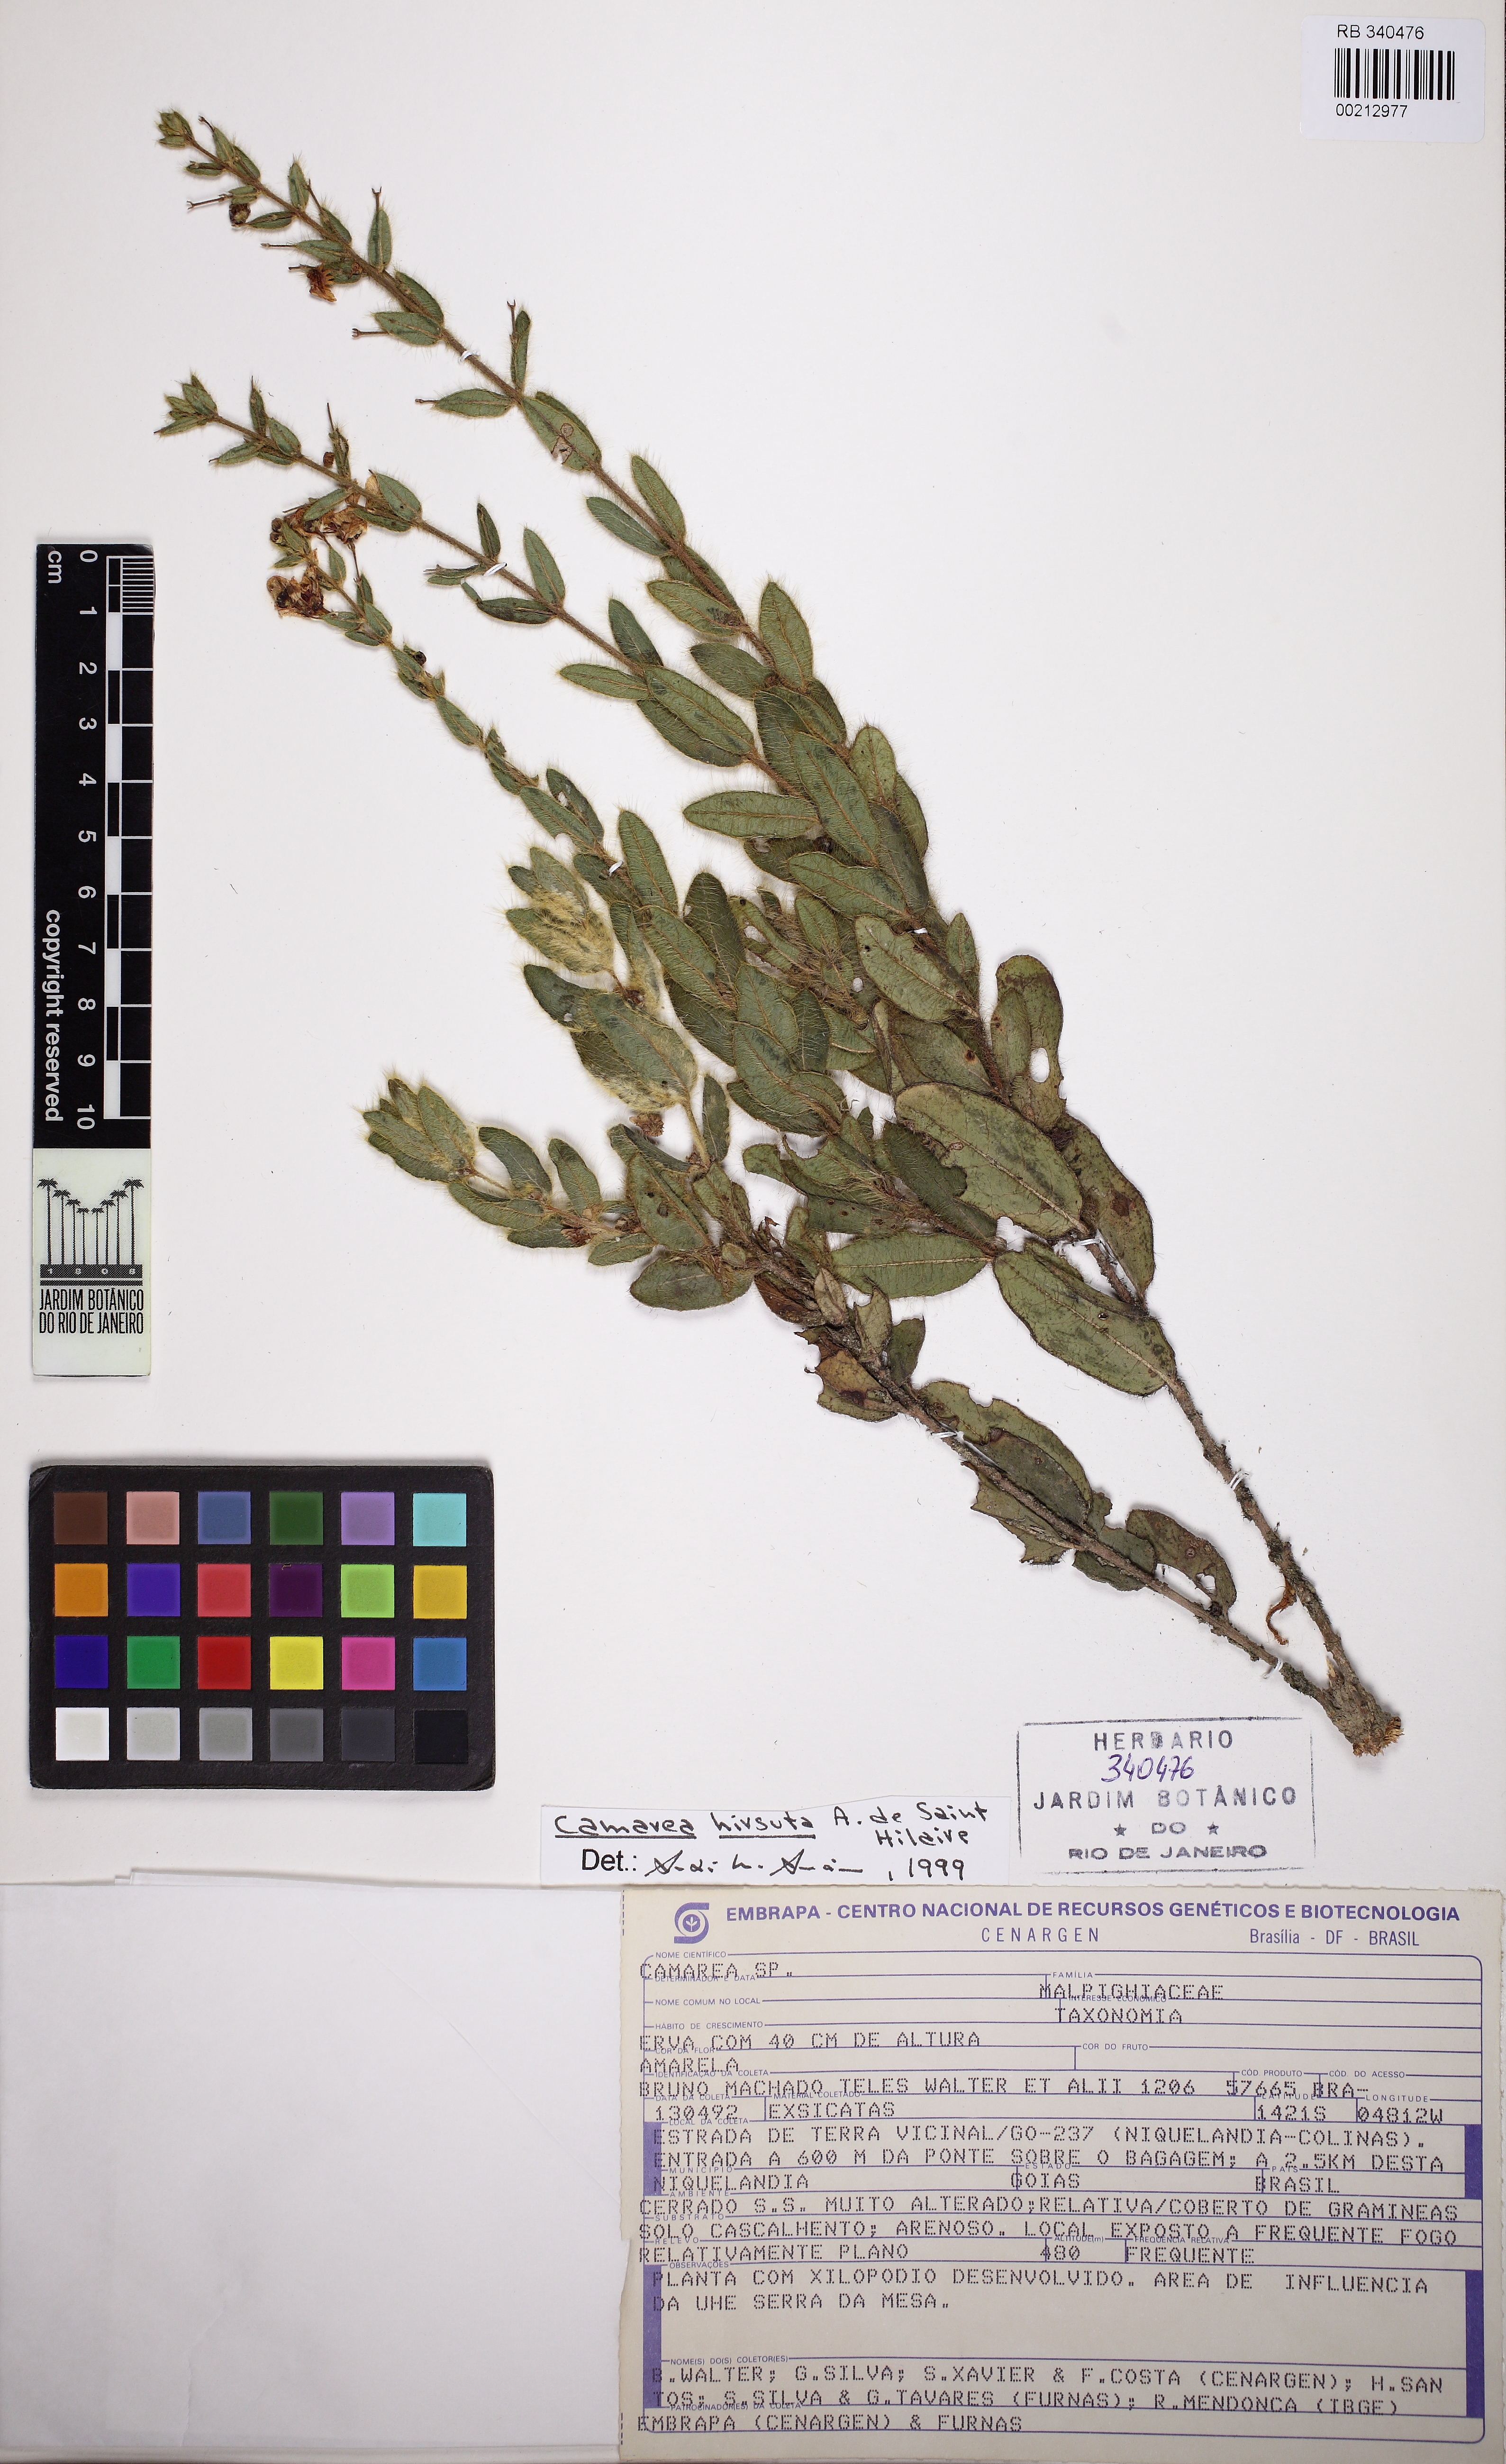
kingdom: Plantae
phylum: Tracheophyta
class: Magnoliopsida
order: Malpighiales
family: Malpighiaceae
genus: Camarea
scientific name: Camarea
